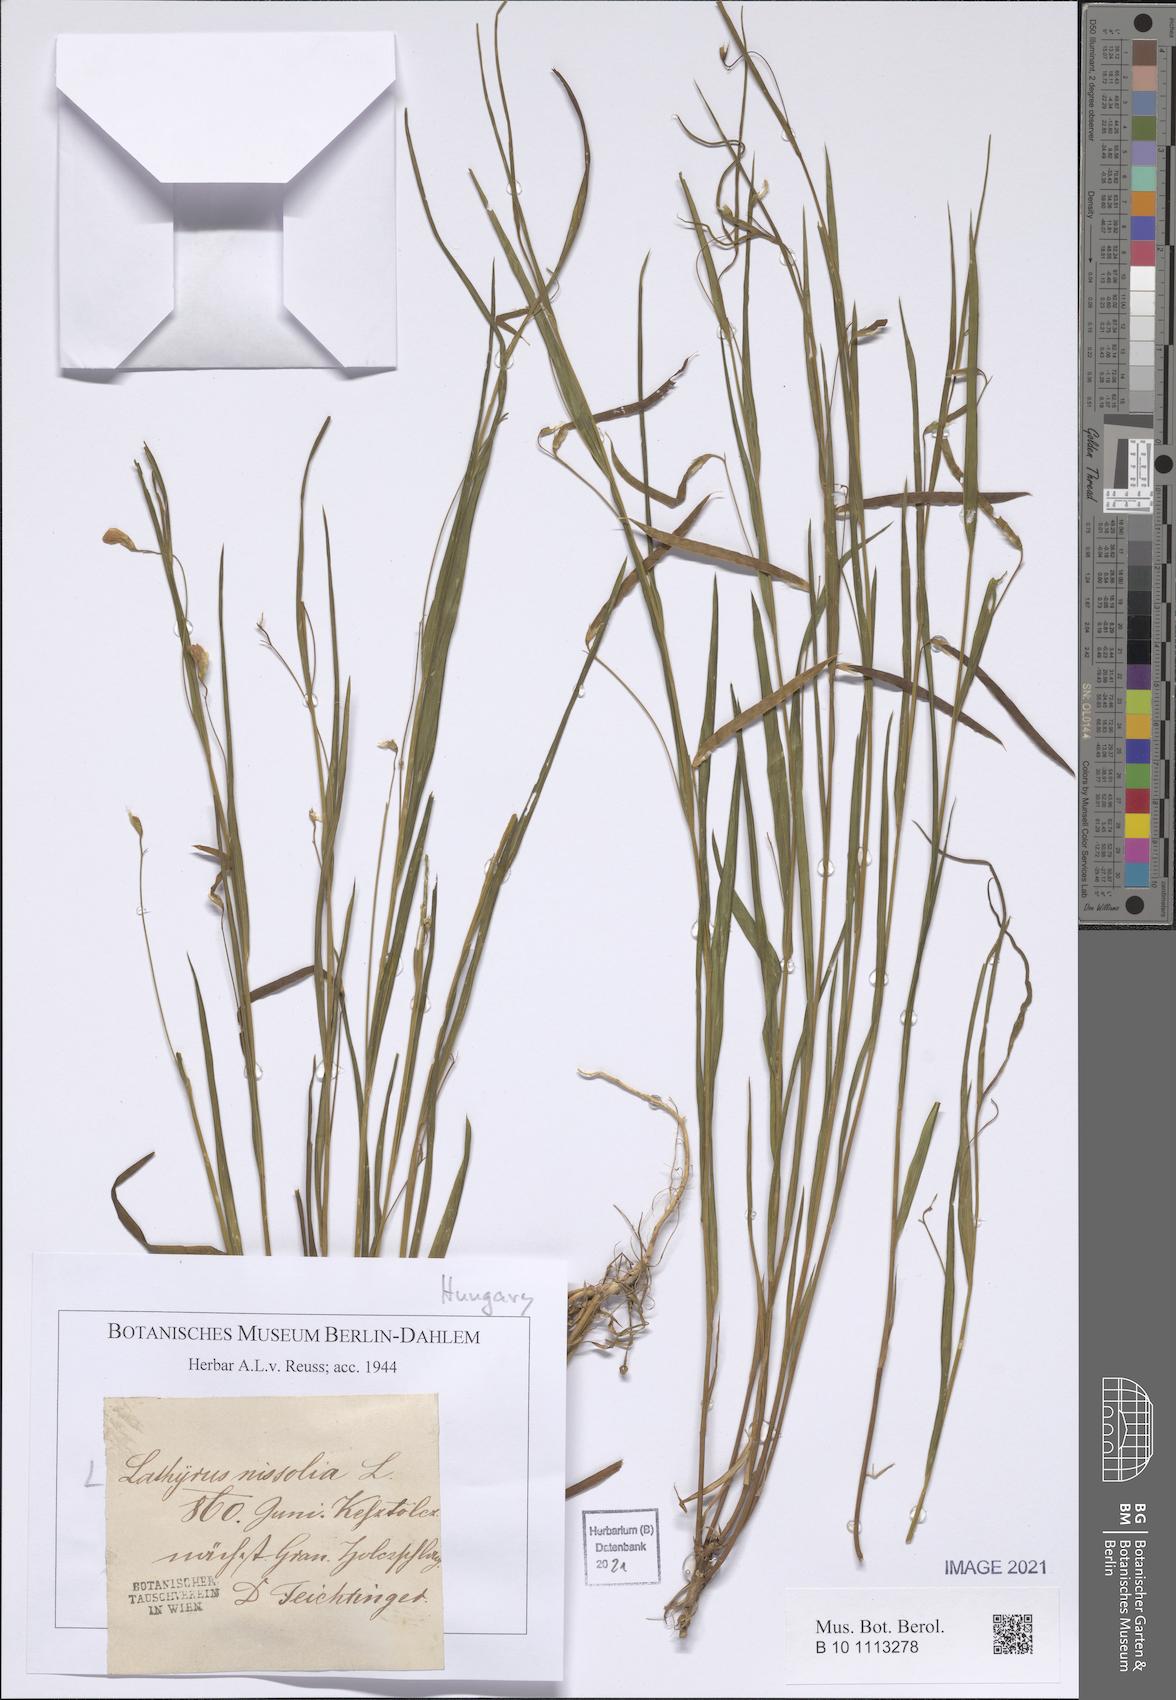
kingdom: Plantae
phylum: Tracheophyta
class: Magnoliopsida
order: Fabales
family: Fabaceae
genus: Lathyrus
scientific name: Lathyrus nissolia
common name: Grass vetchling
